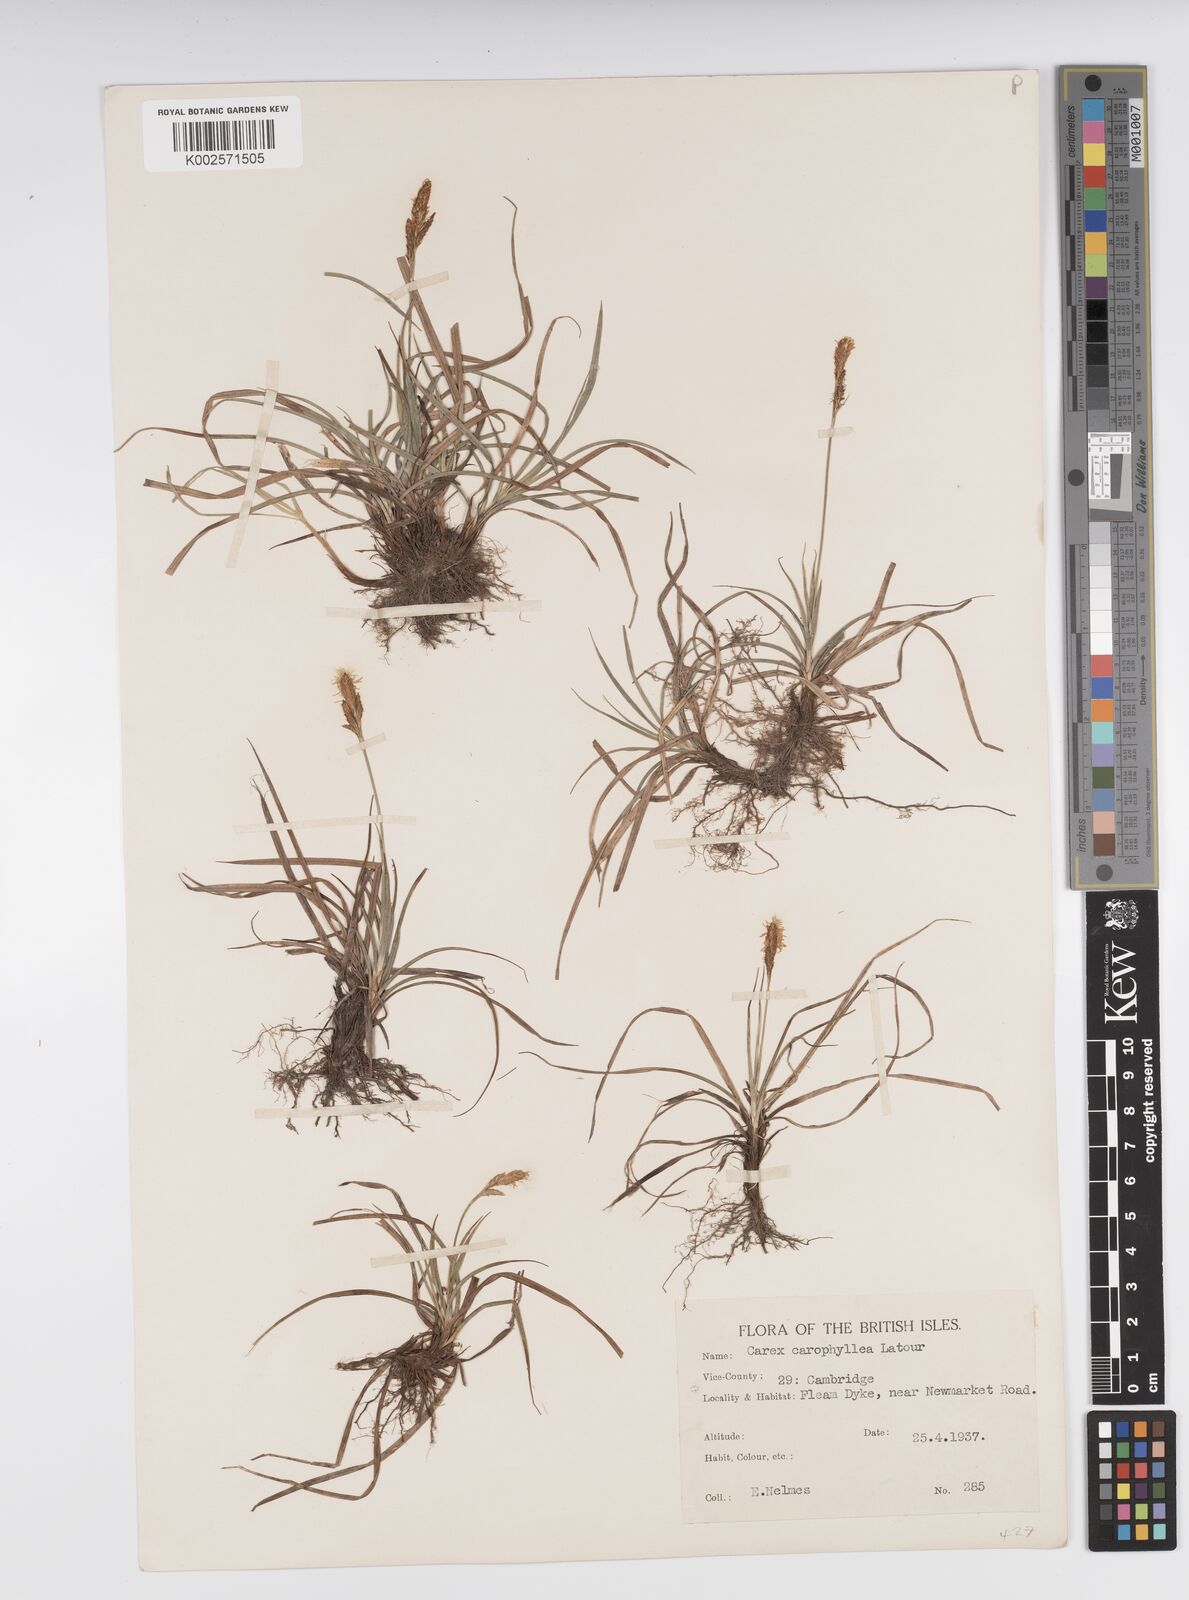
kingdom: Plantae
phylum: Tracheophyta
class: Liliopsida
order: Poales
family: Cyperaceae
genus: Carex
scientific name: Carex caryophyllea
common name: Spring sedge
